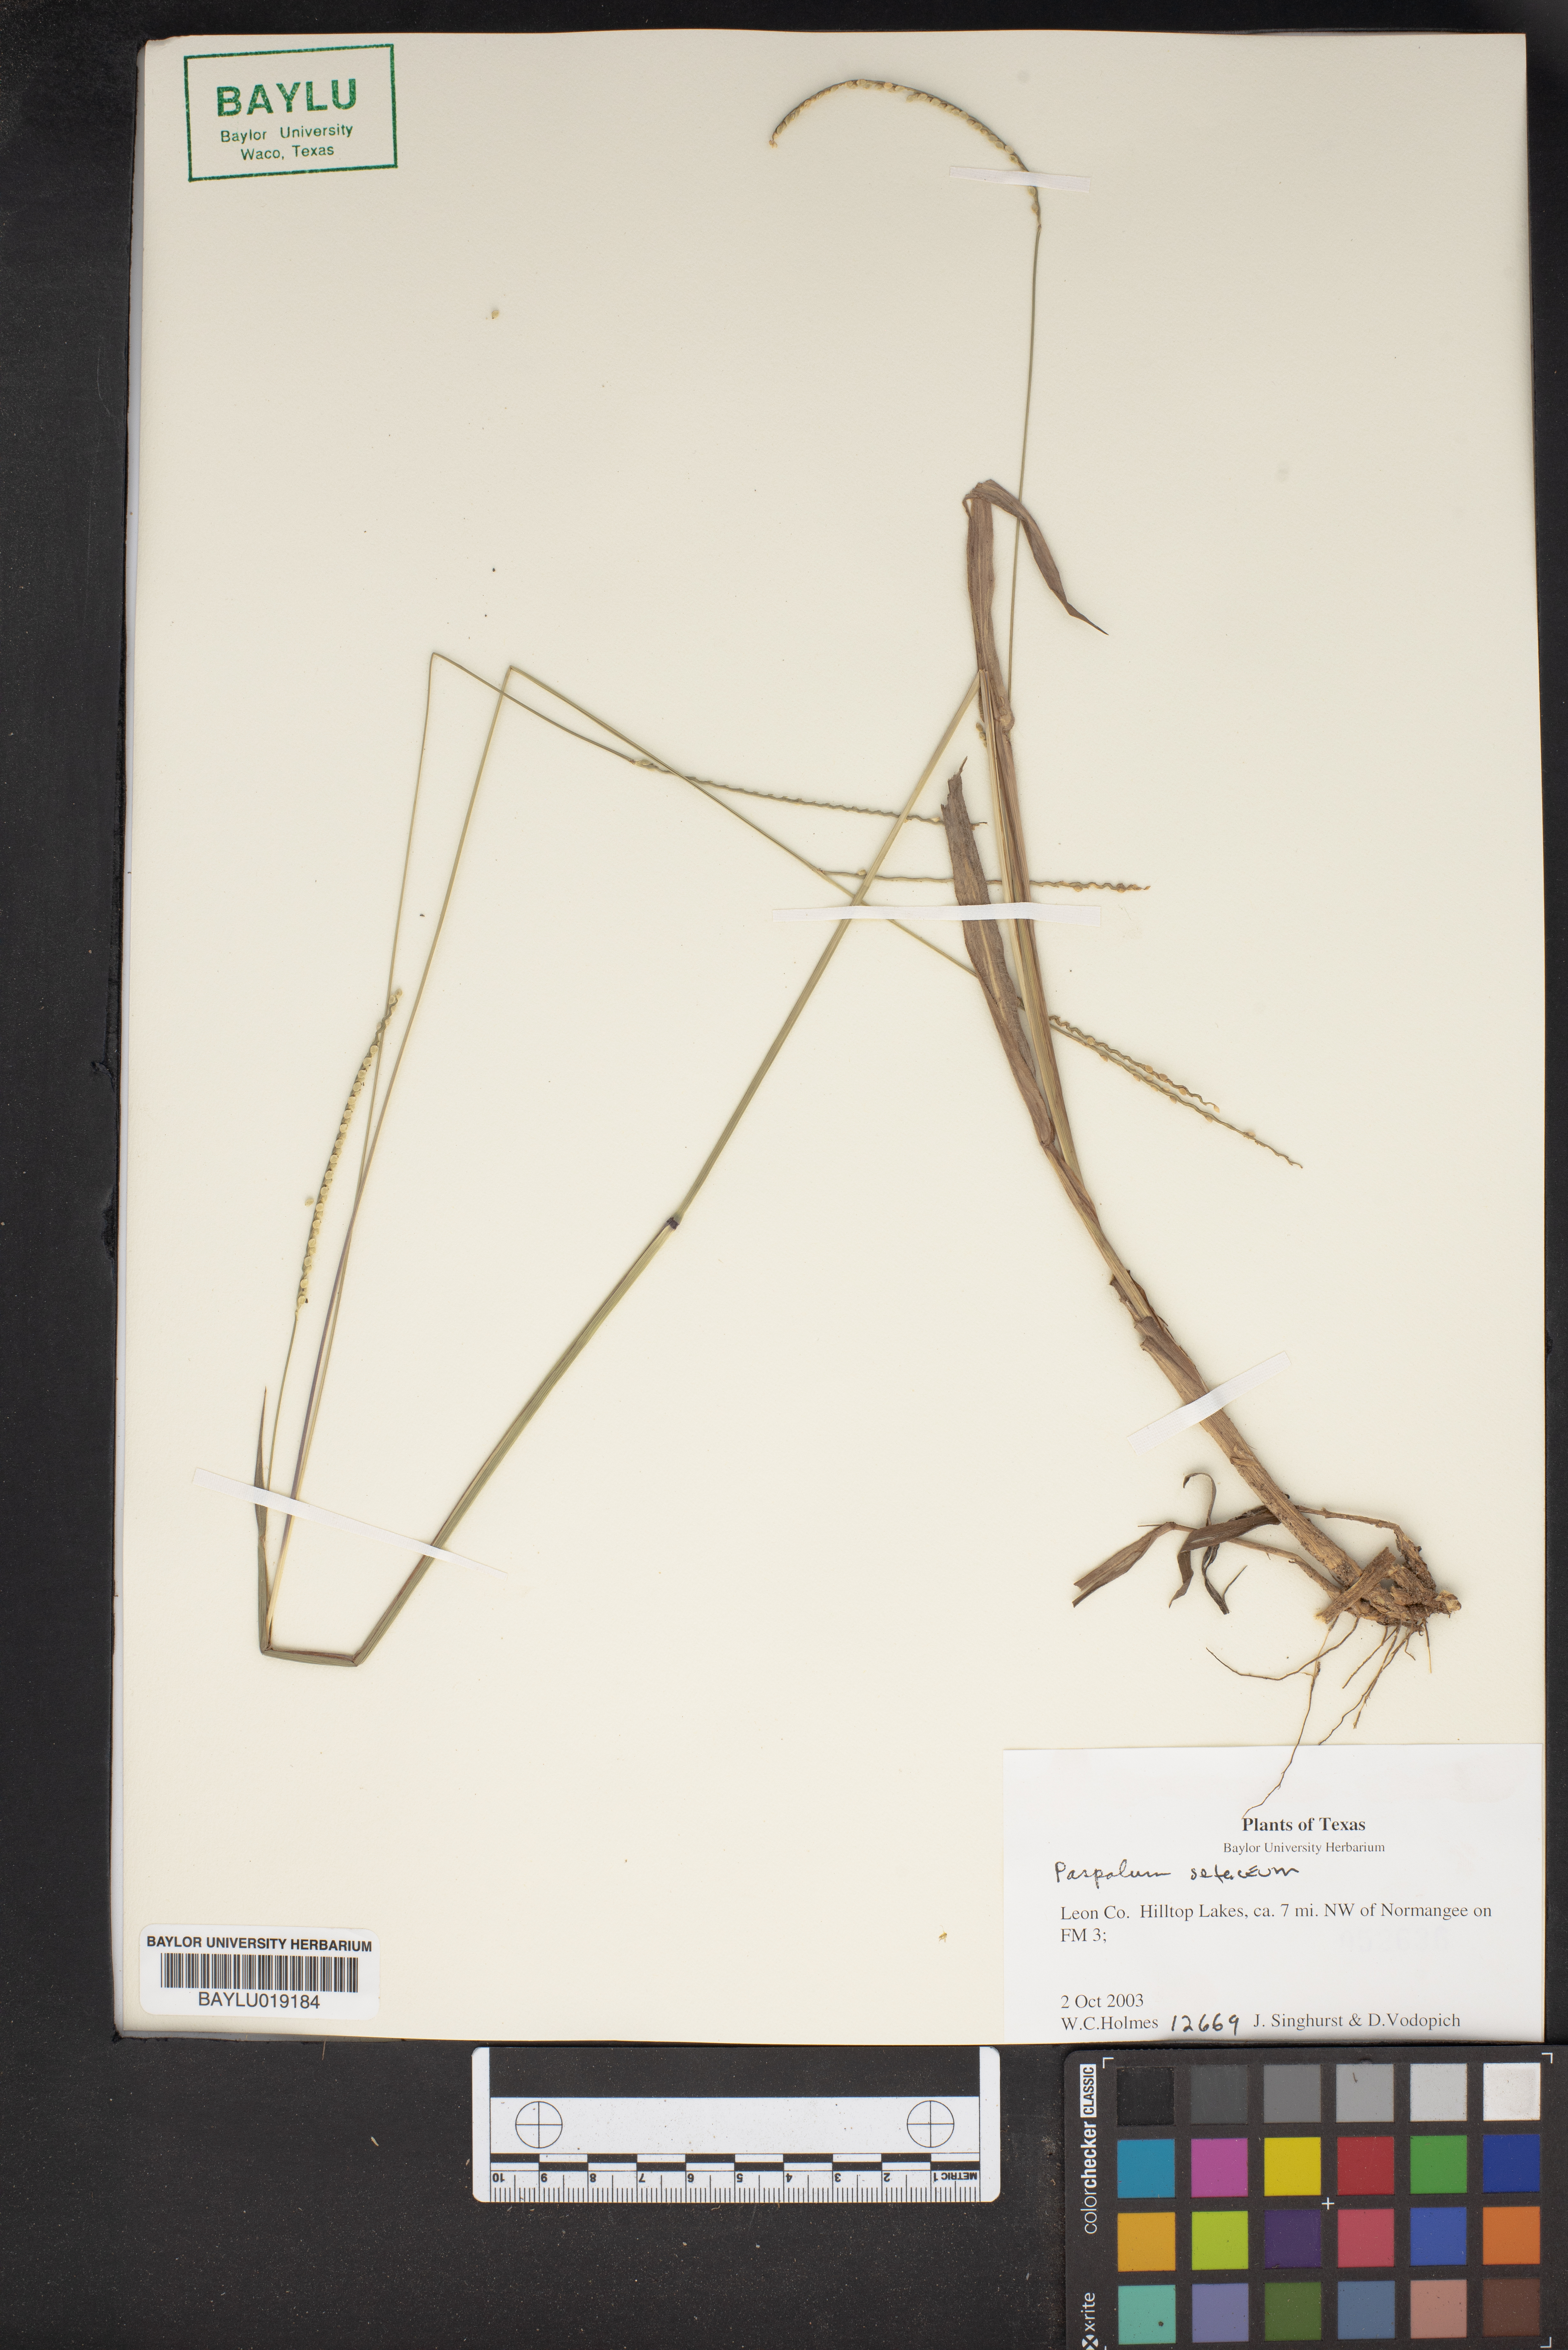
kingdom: Plantae
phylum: Tracheophyta
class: Liliopsida
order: Poales
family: Poaceae
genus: Paspalum
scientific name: Paspalum setaceum
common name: Slender paspalum
